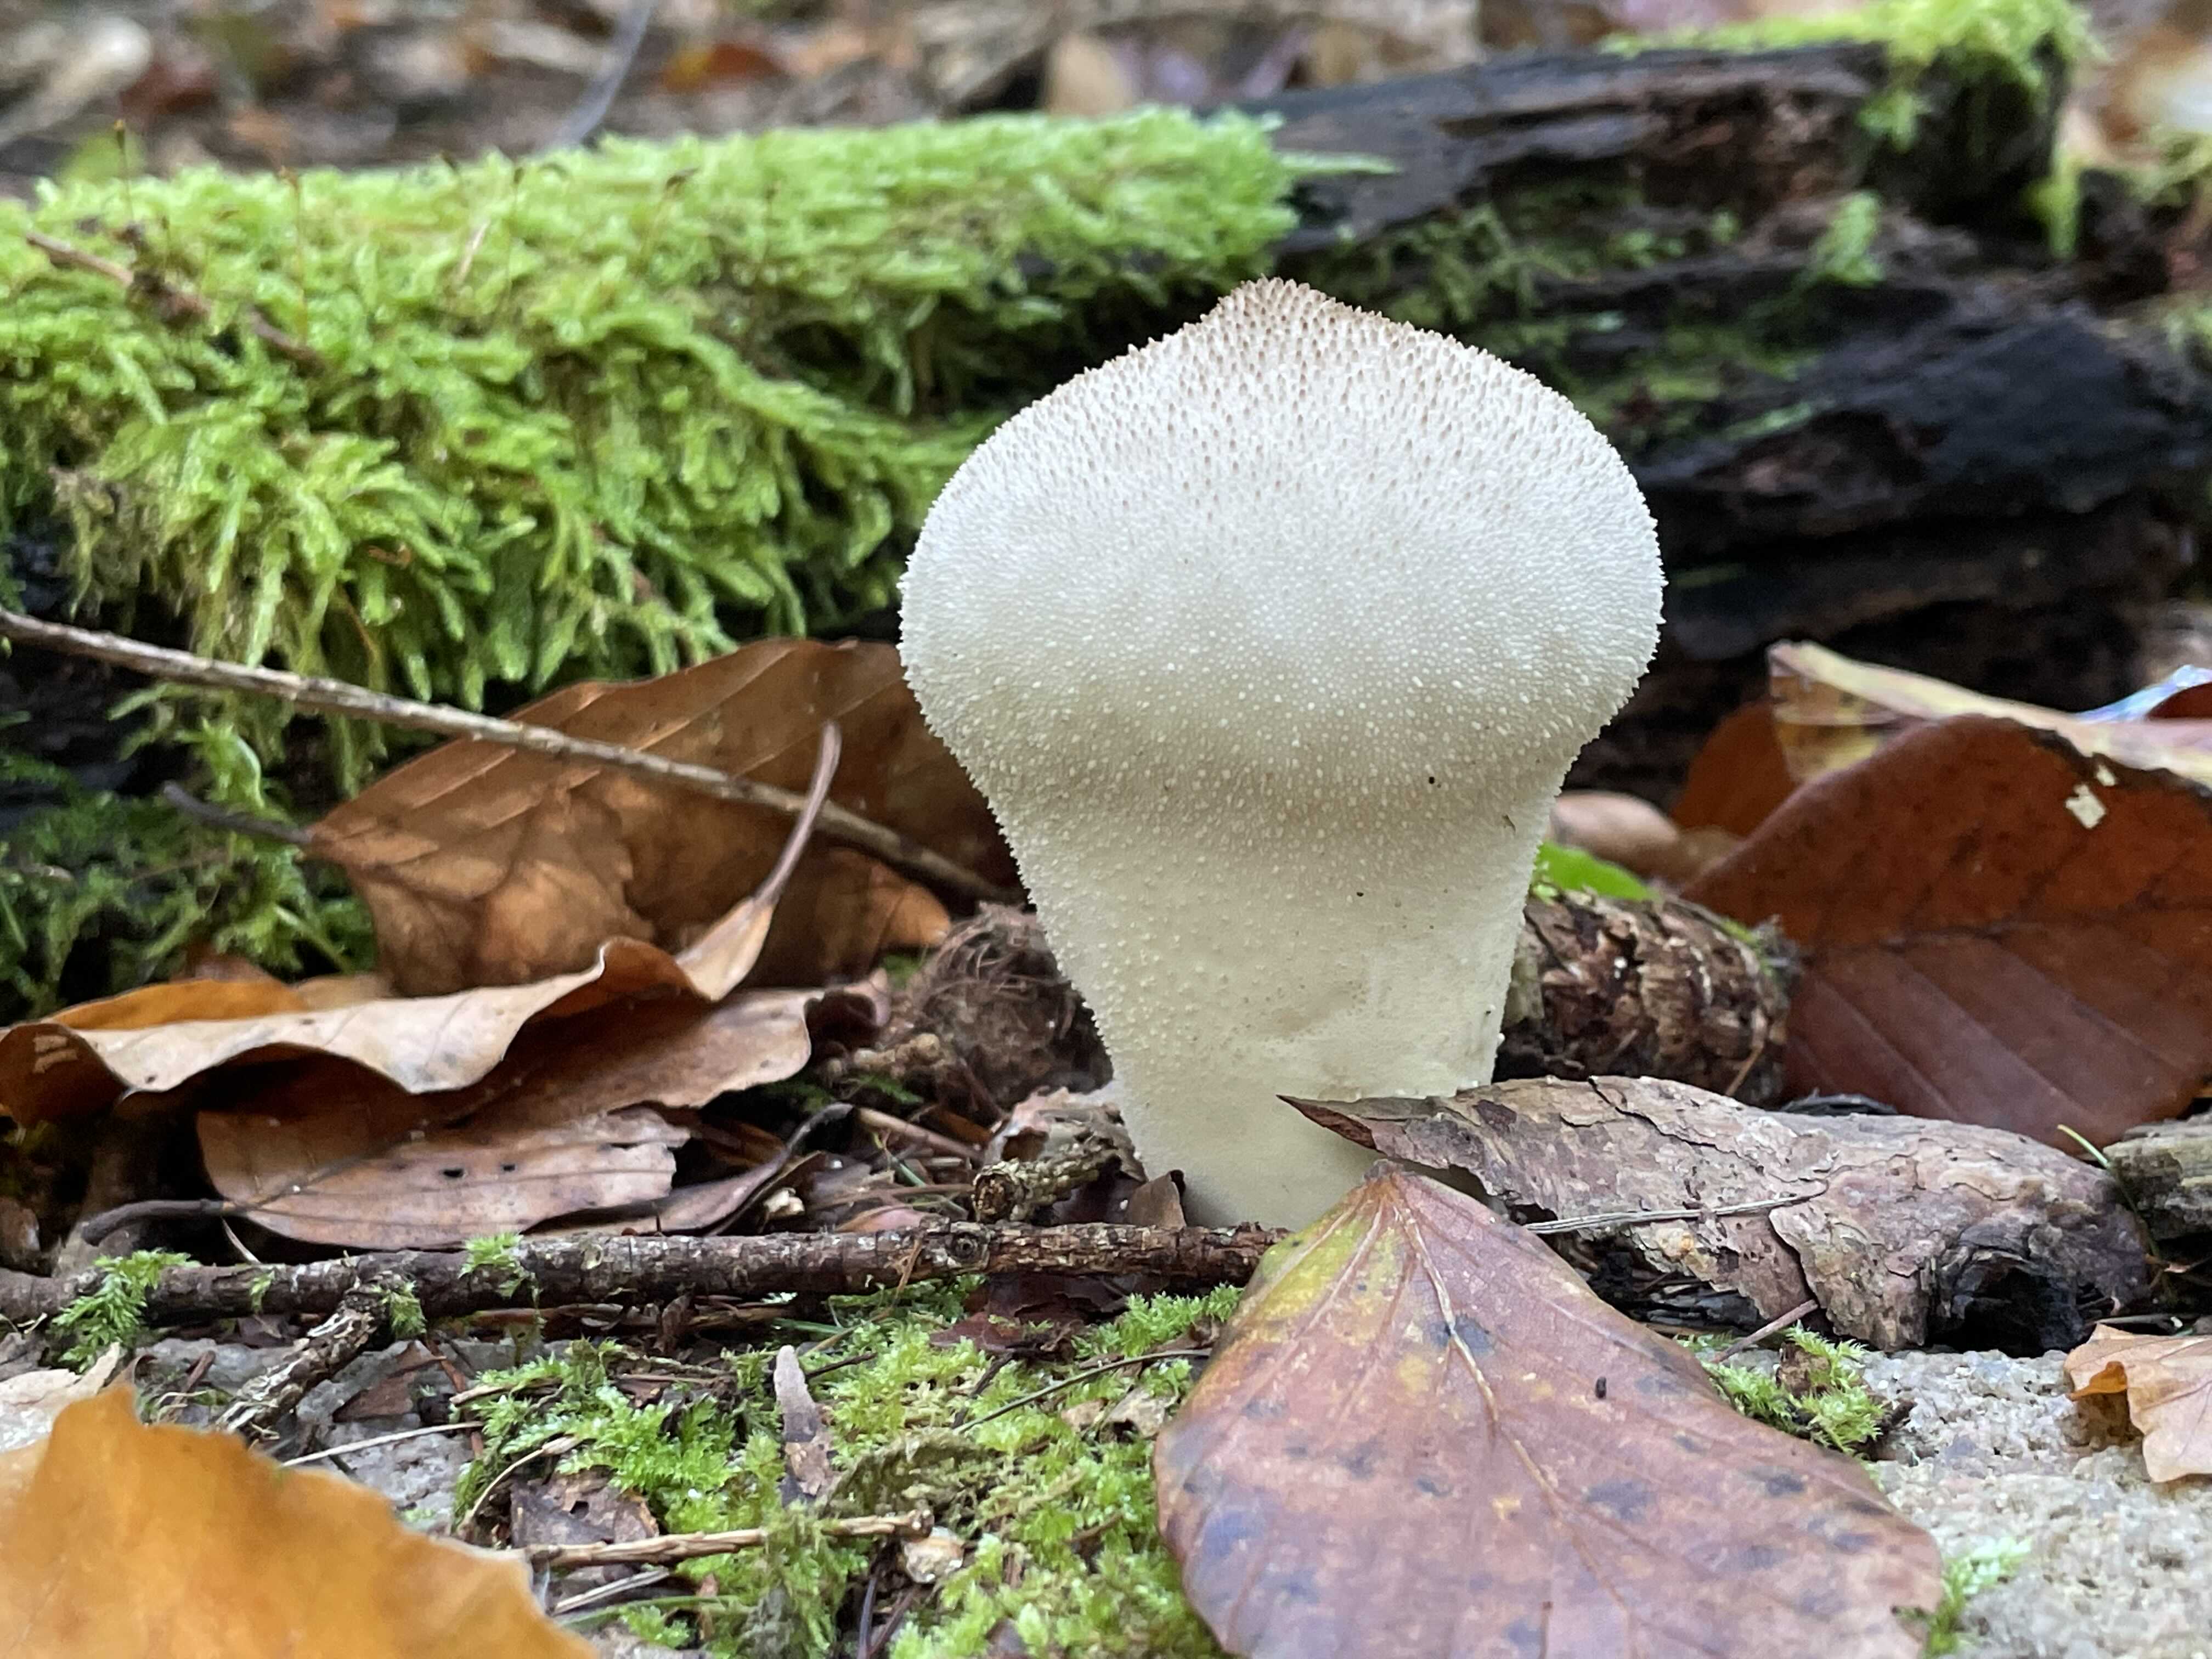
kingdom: Fungi
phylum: Basidiomycota
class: Agaricomycetes
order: Agaricales
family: Lycoperdaceae
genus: Lycoperdon
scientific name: Lycoperdon perlatum
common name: krystal-støvbold
